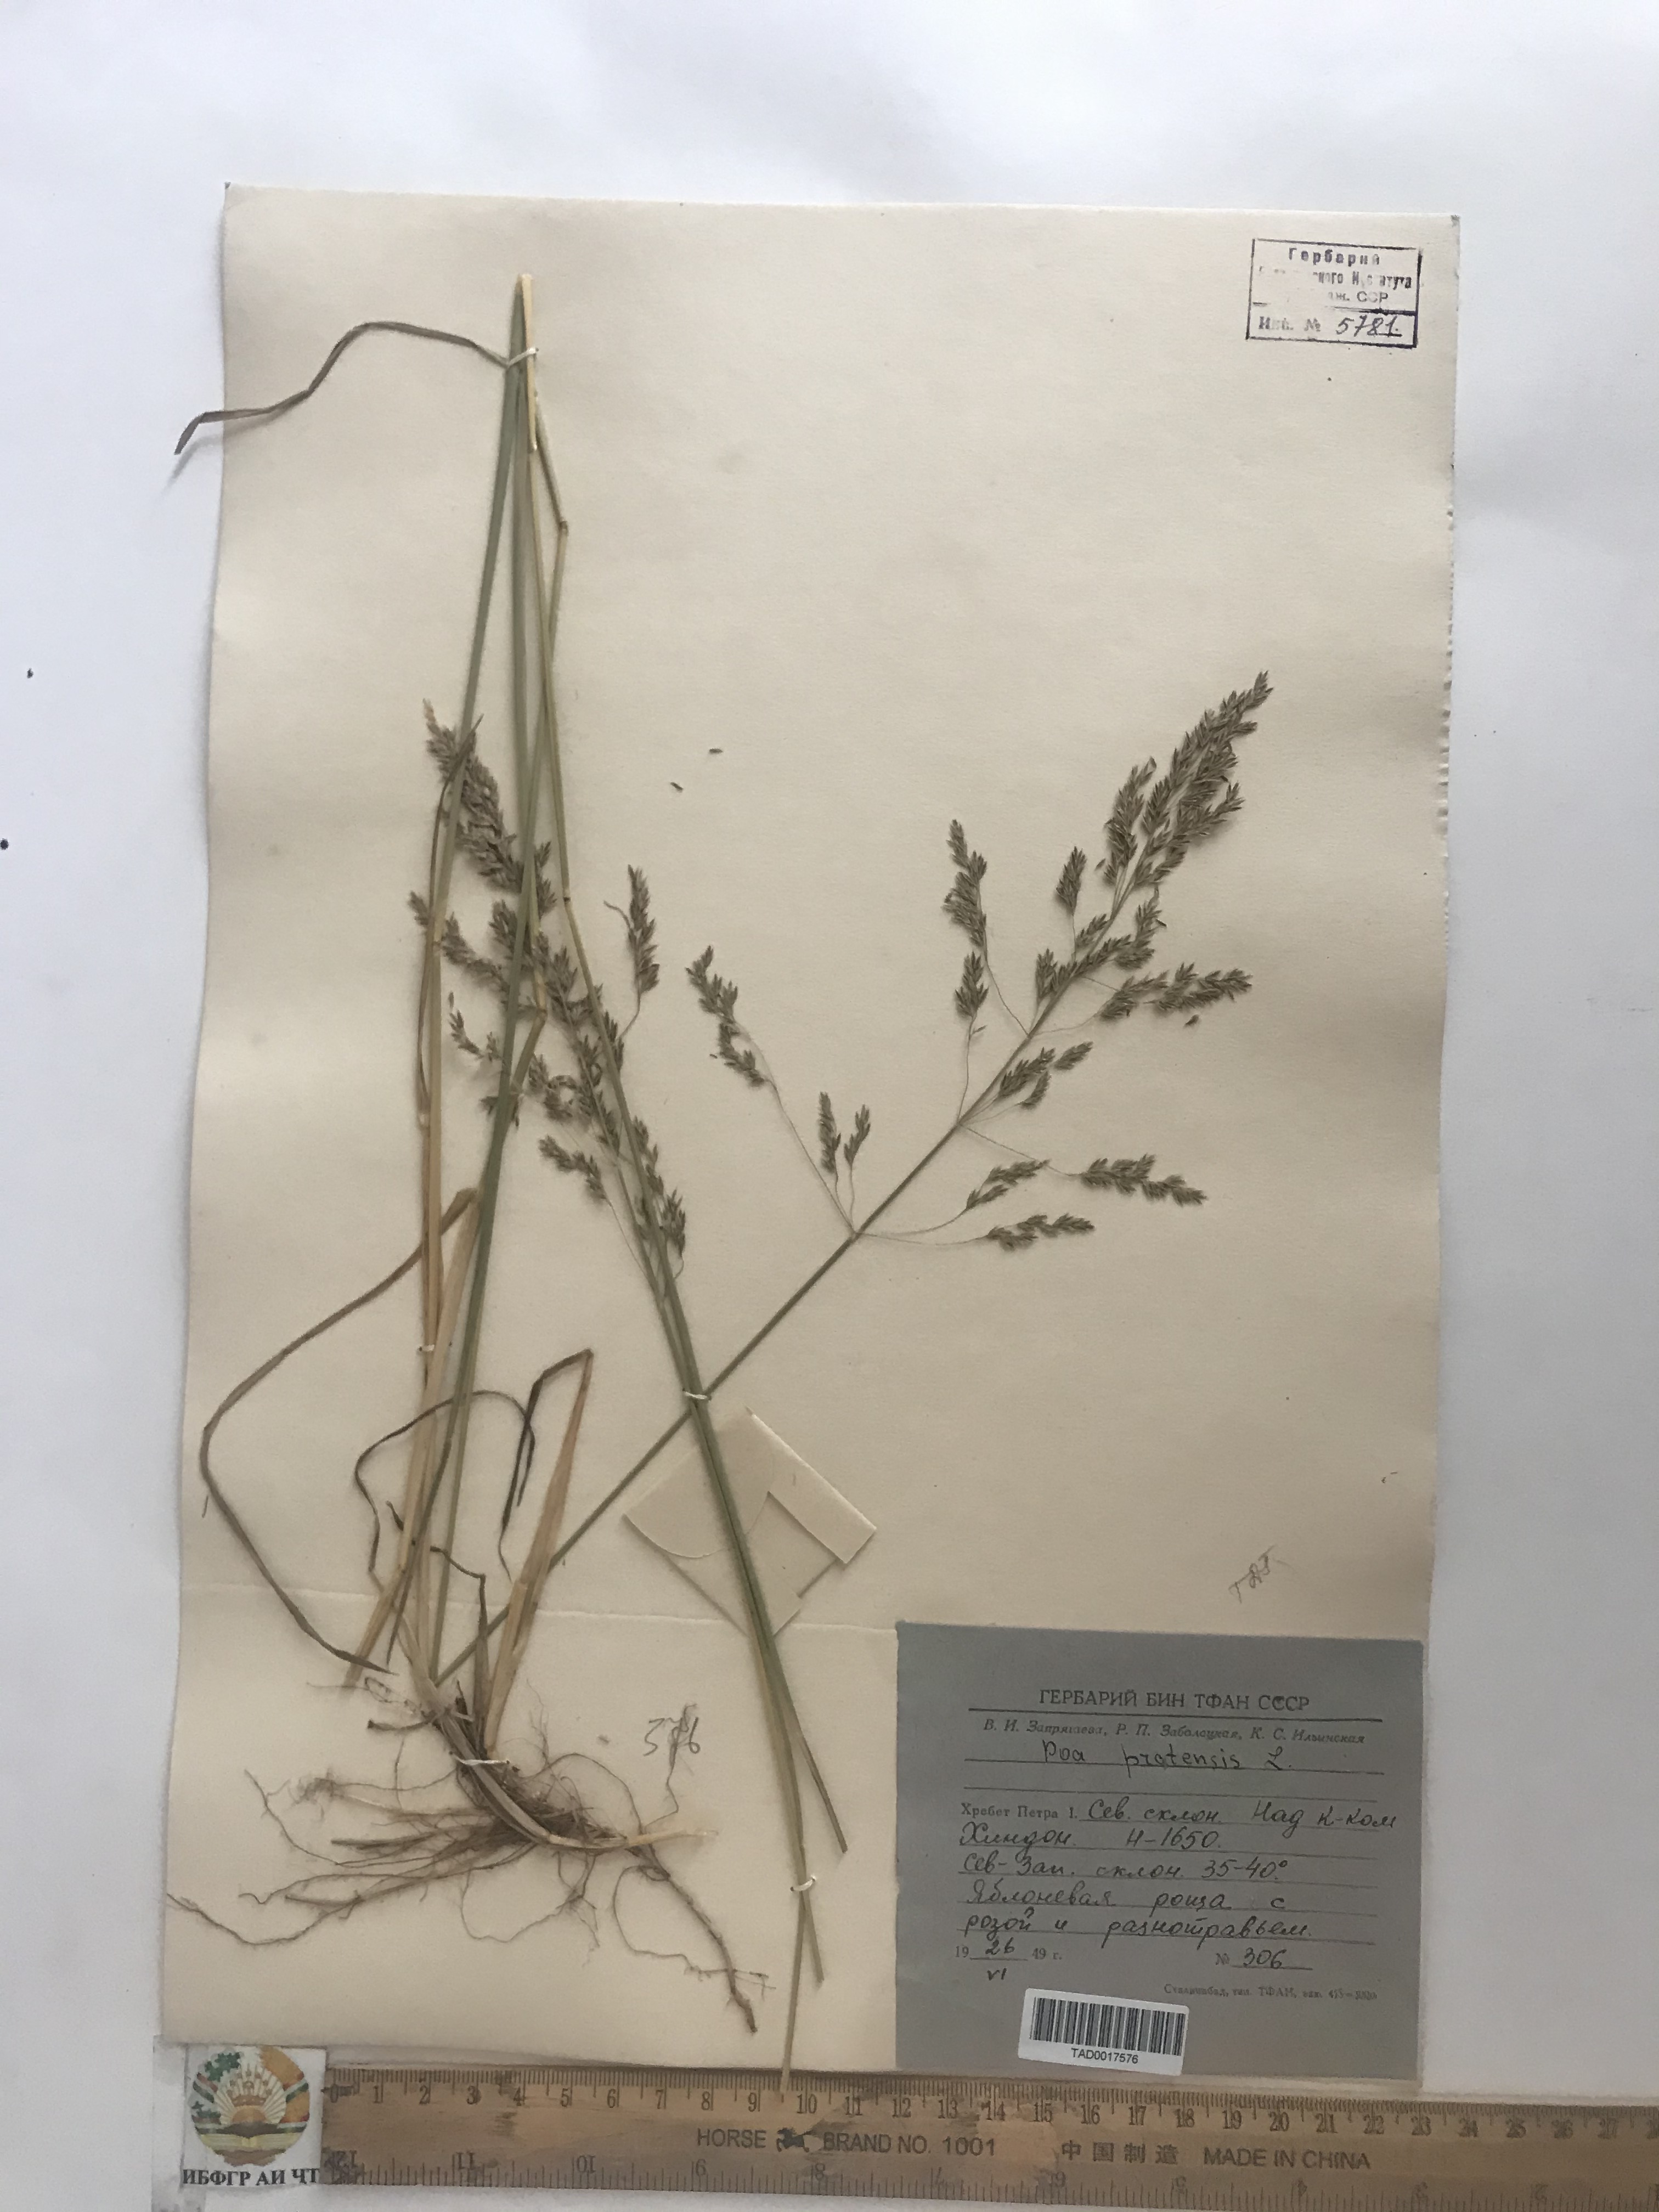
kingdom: Plantae
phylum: Tracheophyta
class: Liliopsida
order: Poales
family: Poaceae
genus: Poa
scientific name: Poa pratensis
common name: Kentucky bluegrass
